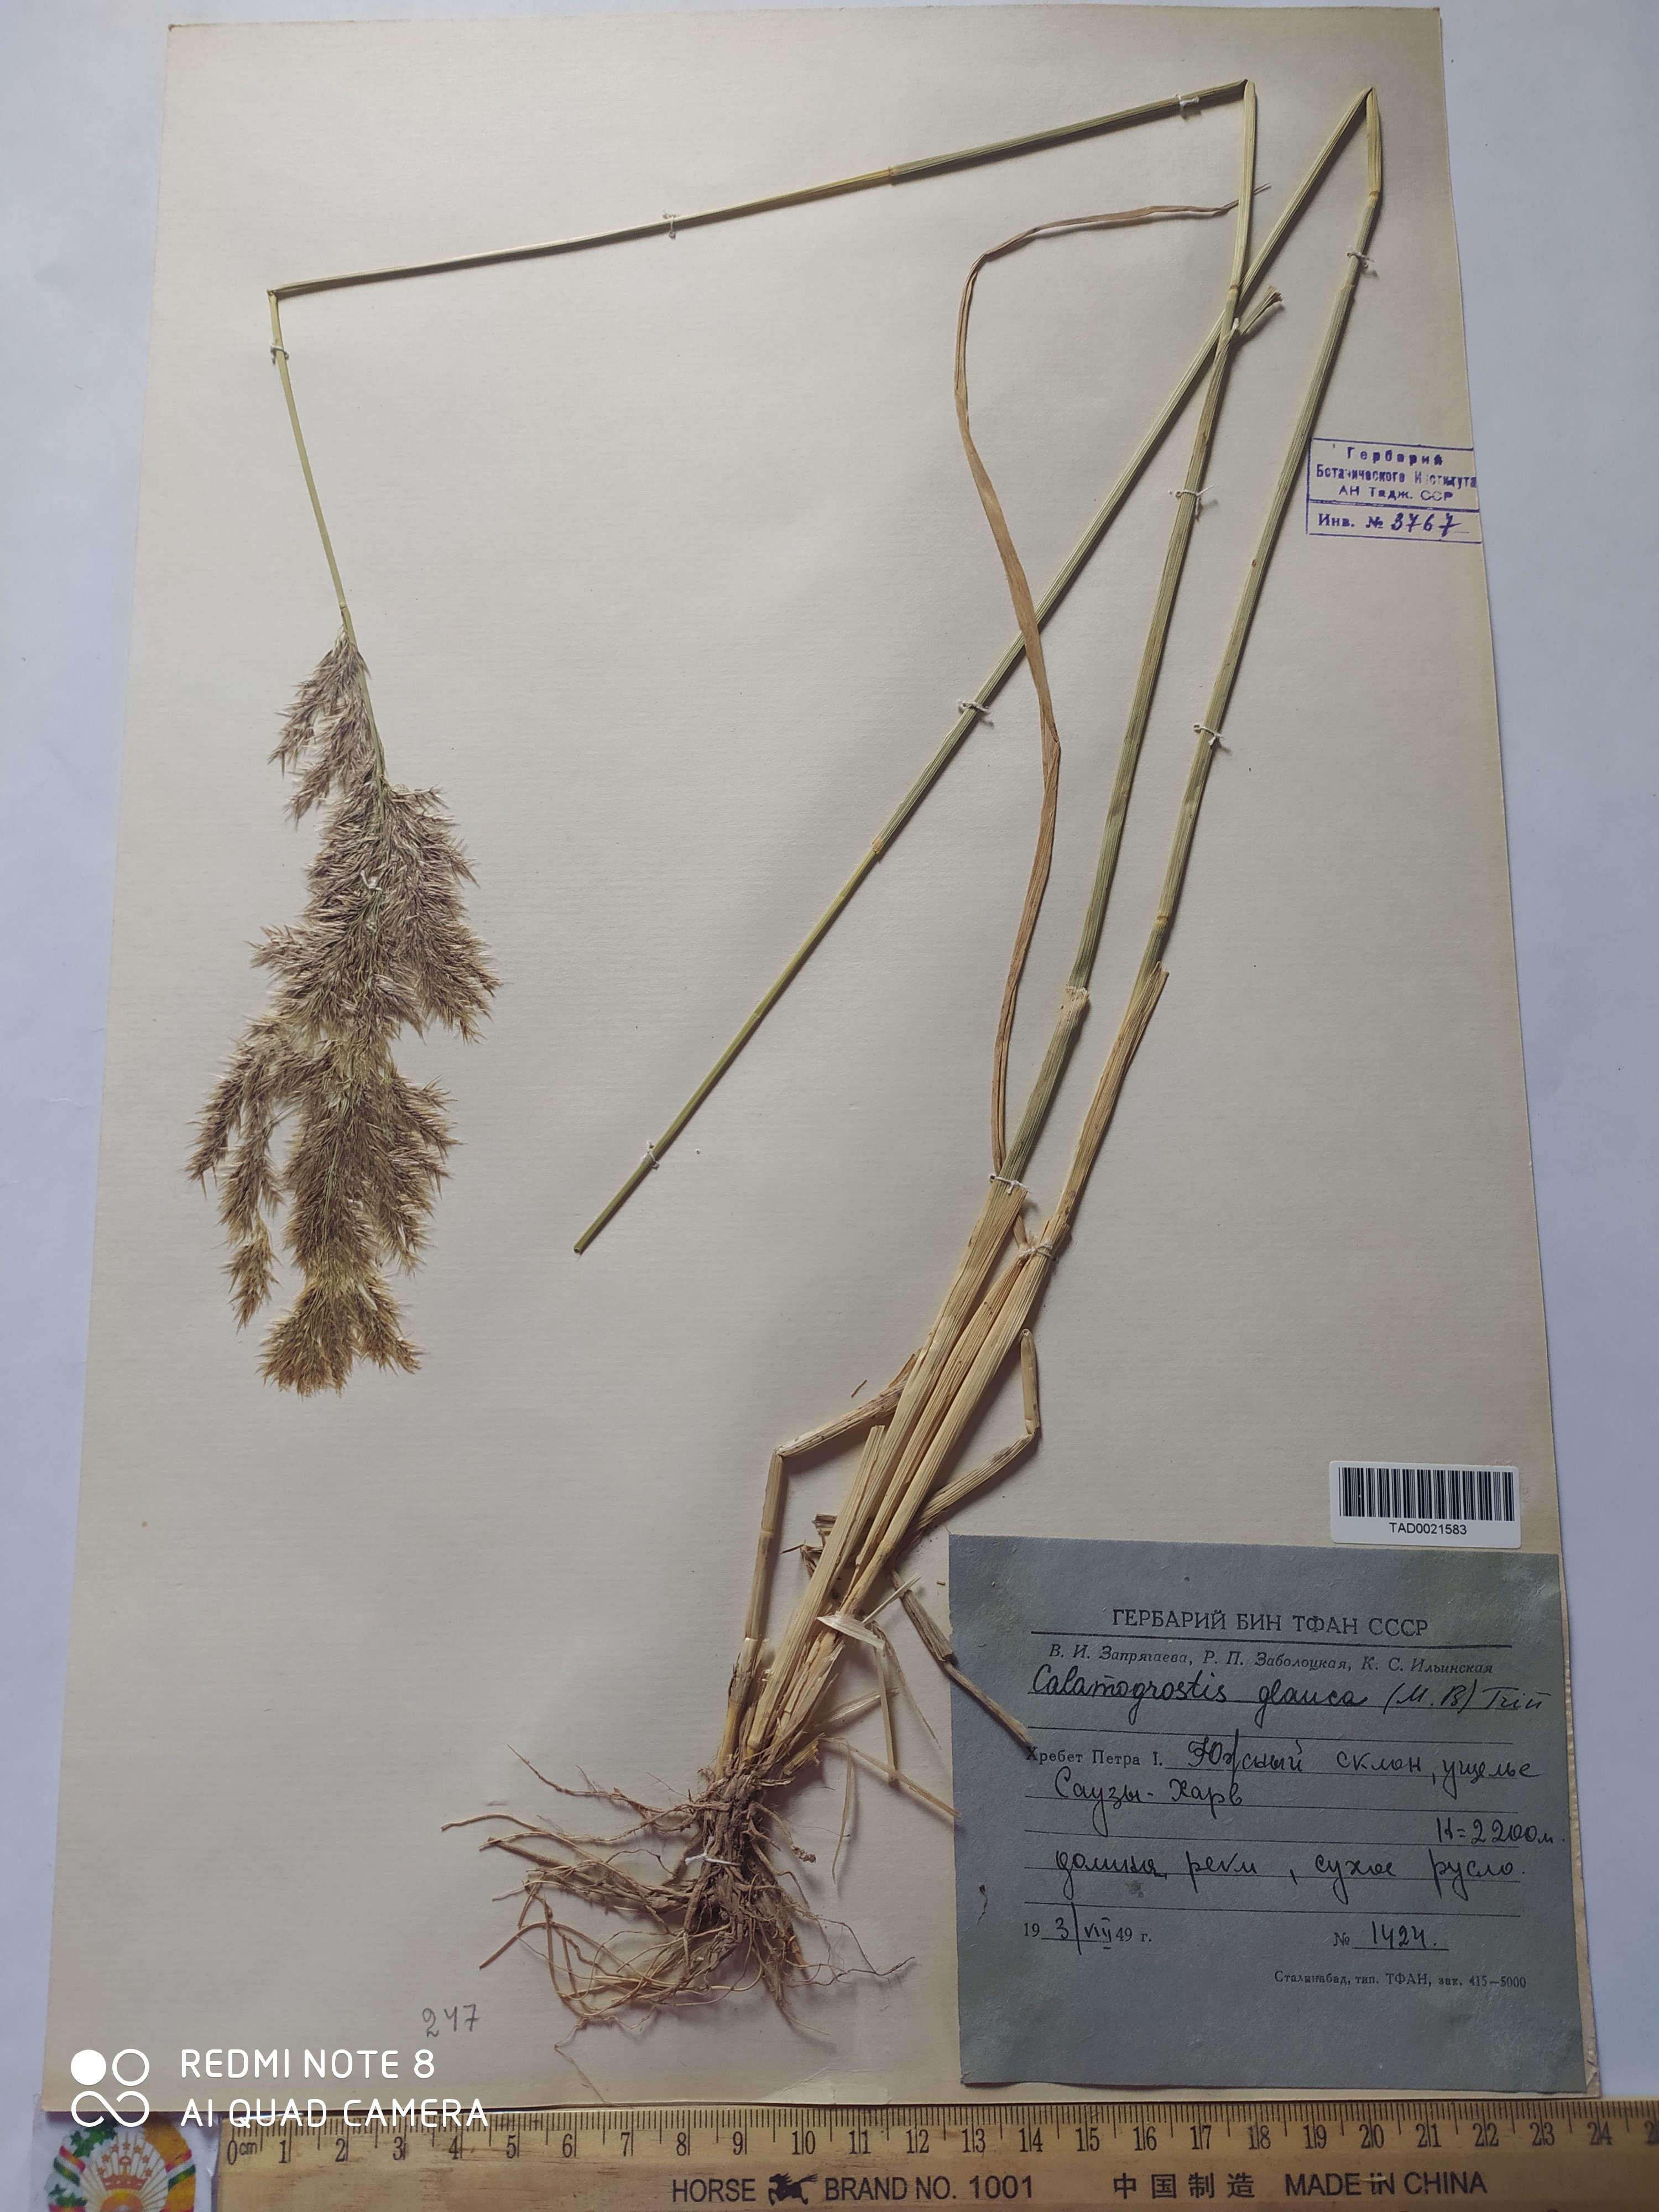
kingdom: Plantae
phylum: Tracheophyta
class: Liliopsida
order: Poales
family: Poaceae
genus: Calamagrostis
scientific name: Calamagrostis pseudophragmites
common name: Coastal small-reed
